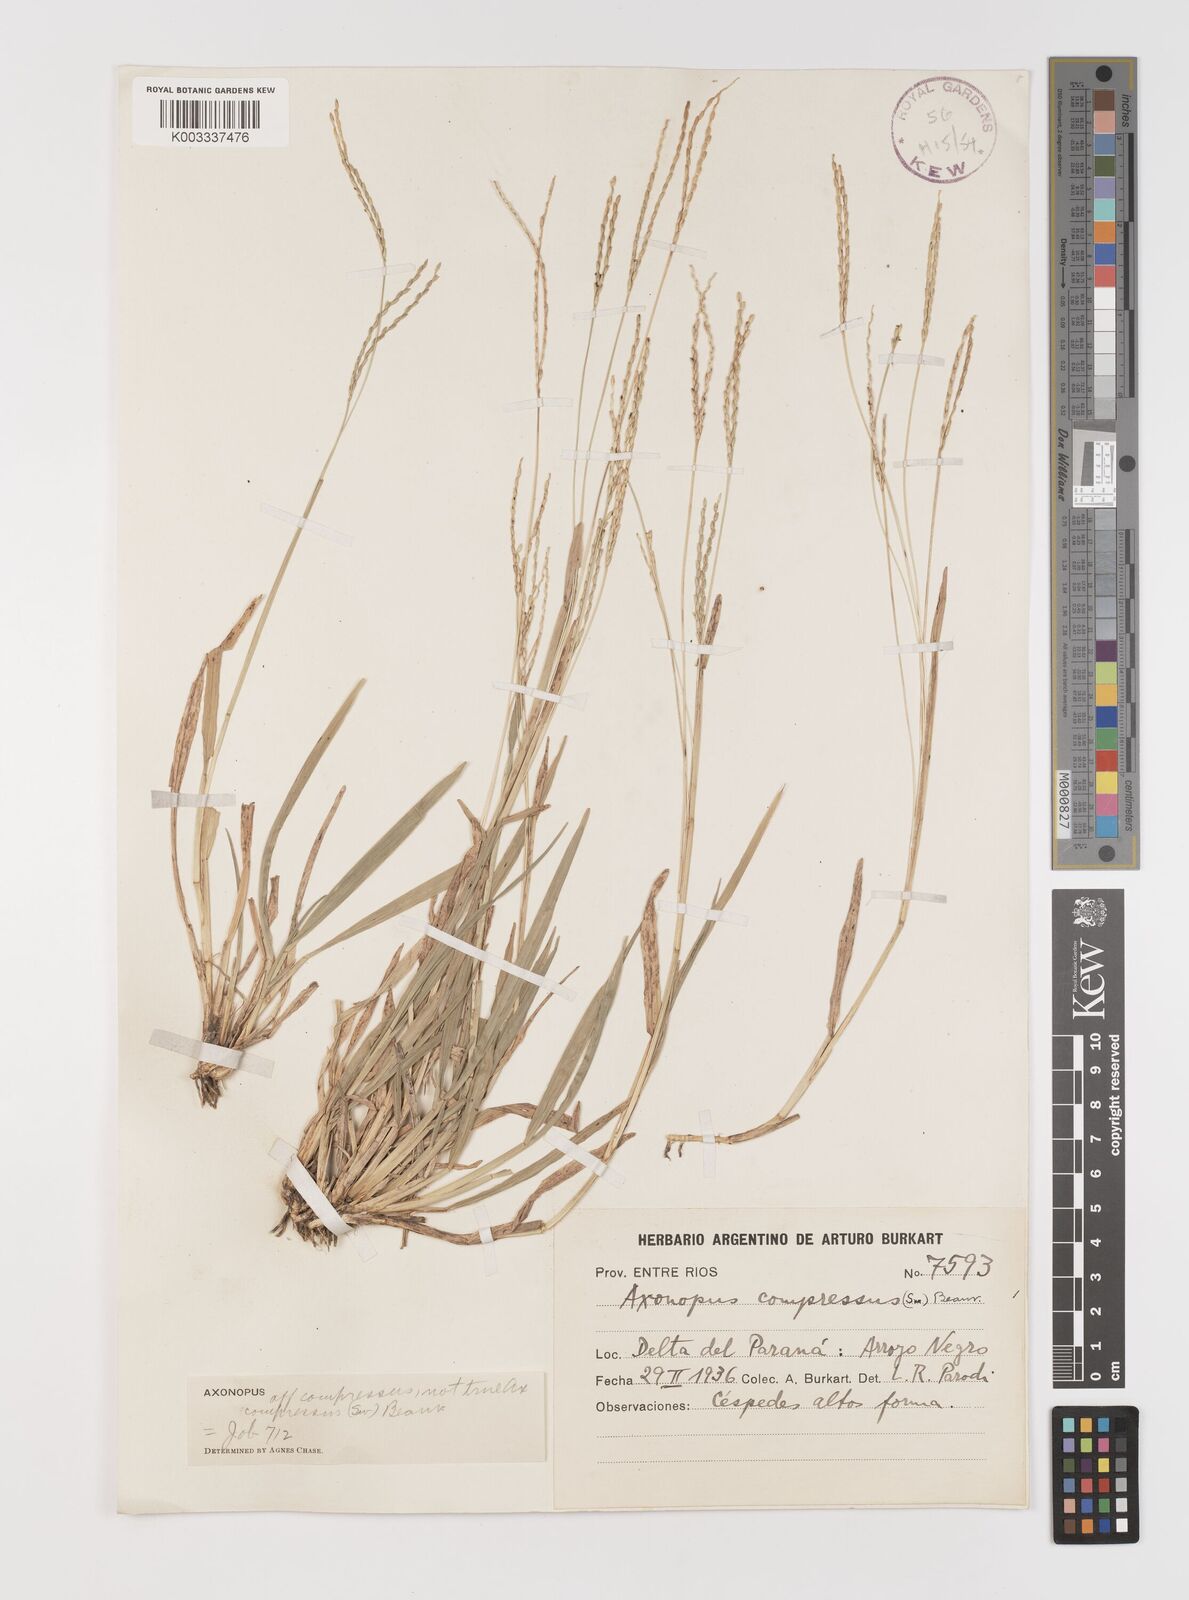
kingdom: Plantae
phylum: Tracheophyta
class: Liliopsida
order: Poales
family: Poaceae
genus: Axonopus
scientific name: Axonopus
